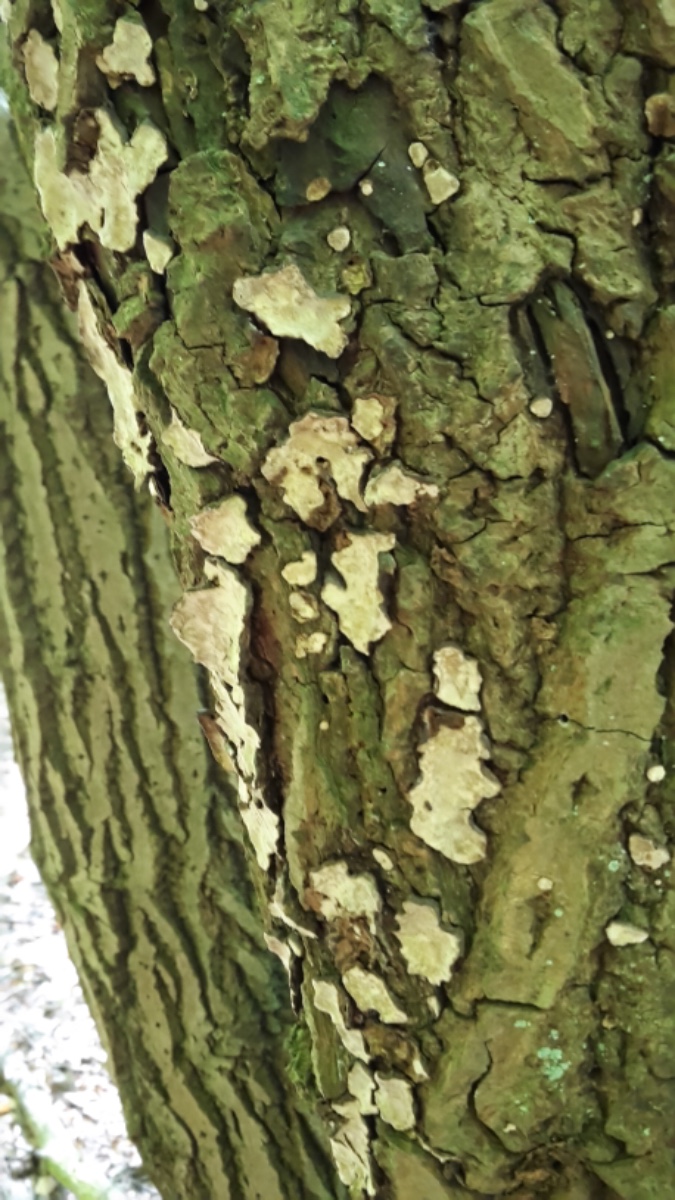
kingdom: Fungi
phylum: Basidiomycota
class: Agaricomycetes
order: Russulales
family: Stereaceae
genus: Stereum
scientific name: Stereum rugosum
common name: rynket lædersvamp
